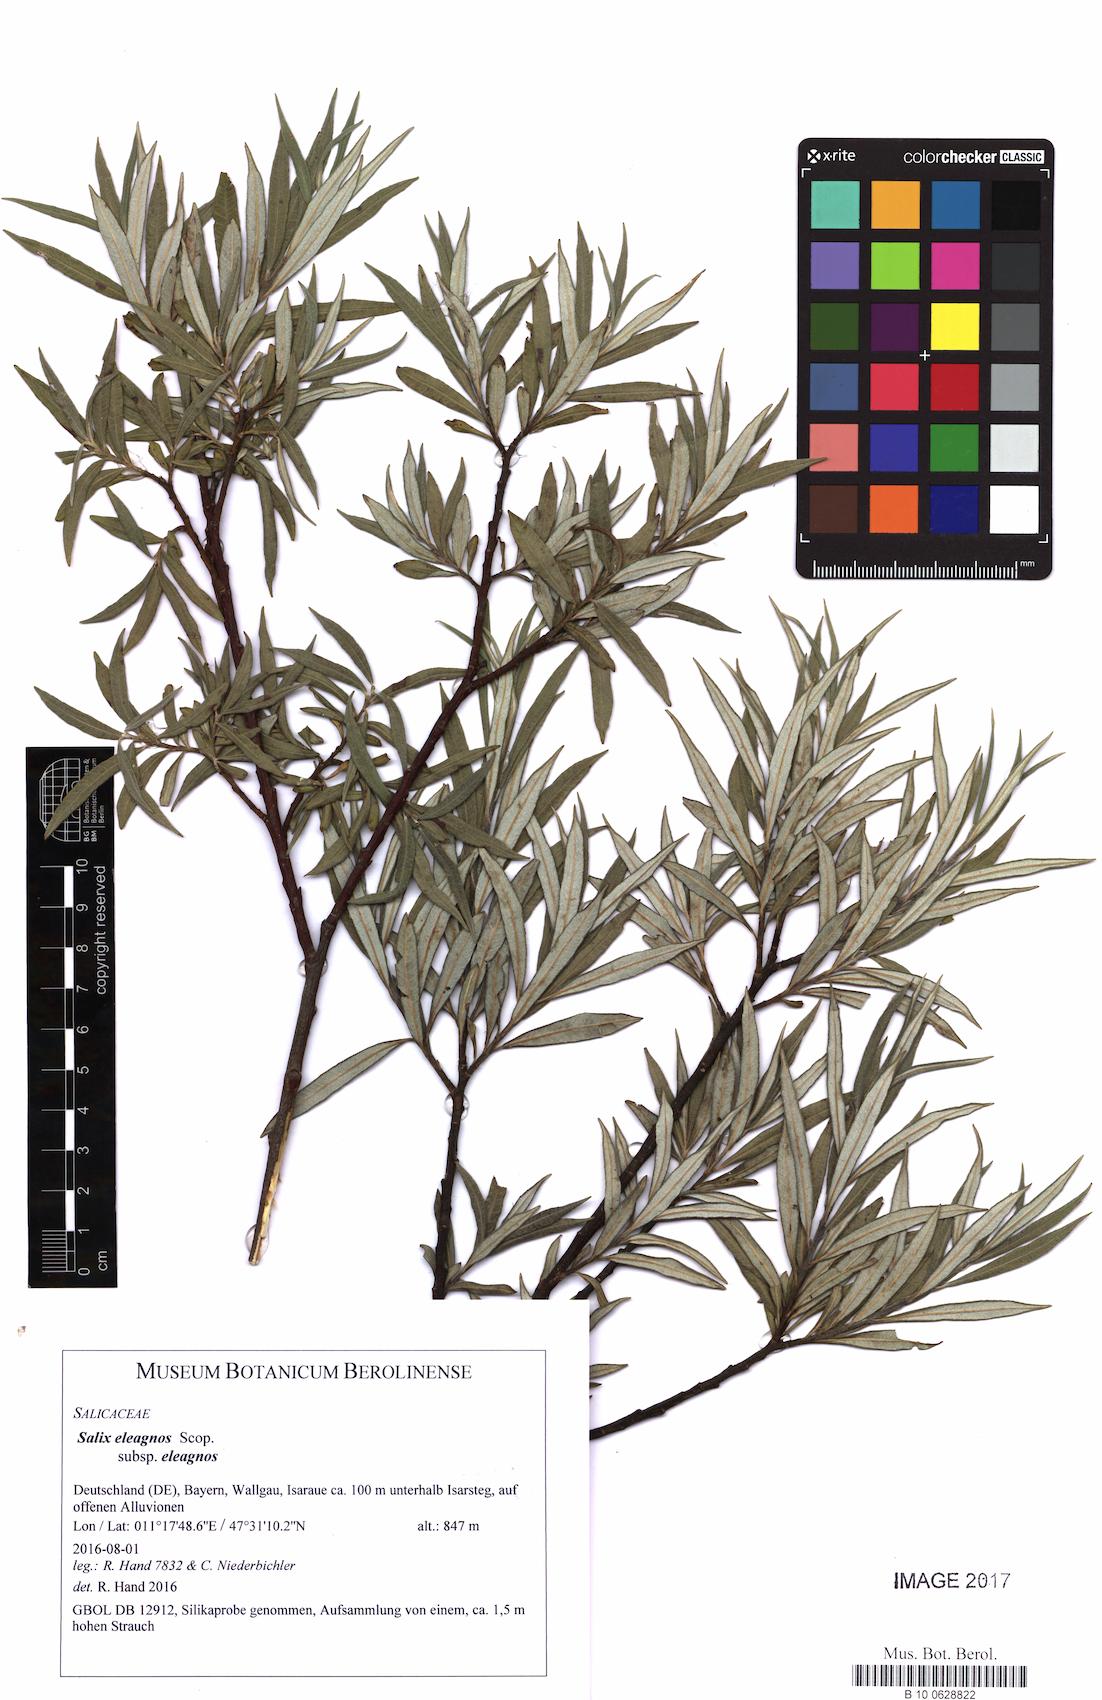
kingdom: Plantae
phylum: Tracheophyta
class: Magnoliopsida
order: Malpighiales
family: Salicaceae
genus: Salix
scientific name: Salix eleagnos
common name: Elaeagnus willow
